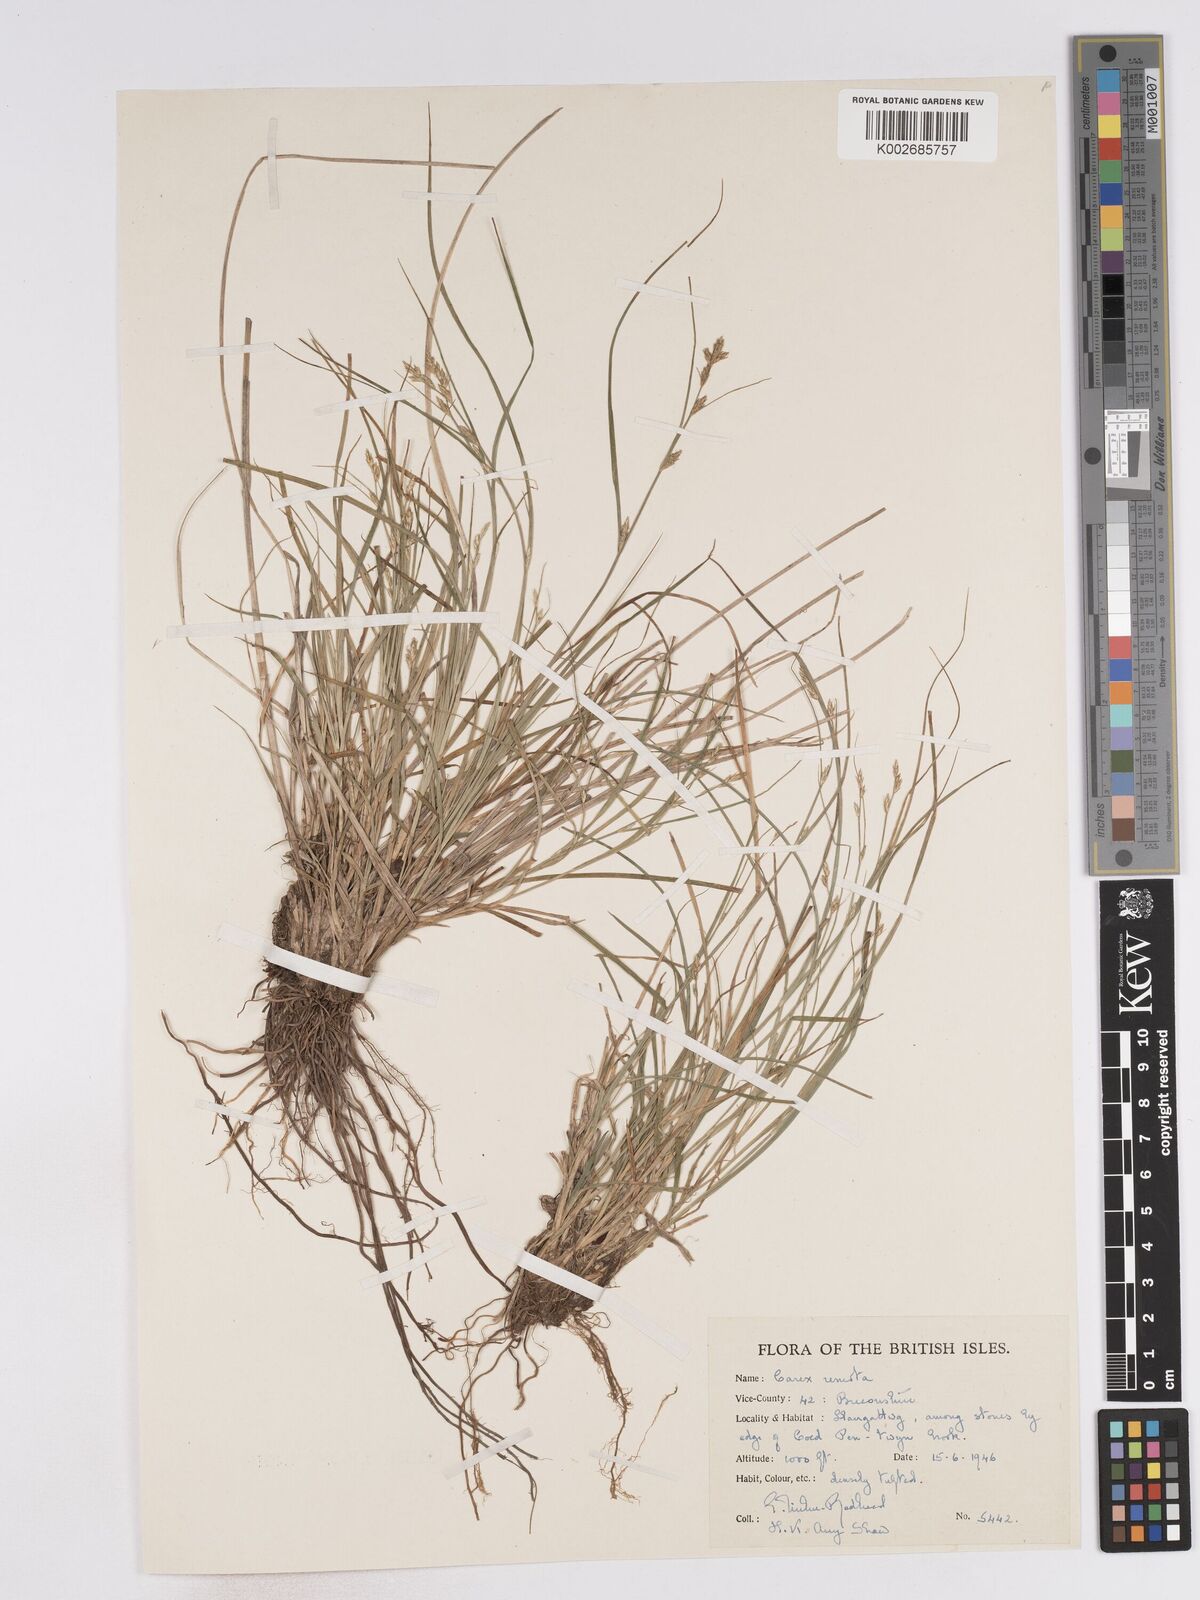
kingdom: Plantae
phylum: Tracheophyta
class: Liliopsida
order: Poales
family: Cyperaceae
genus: Carex
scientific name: Carex remota
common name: Remote sedge
